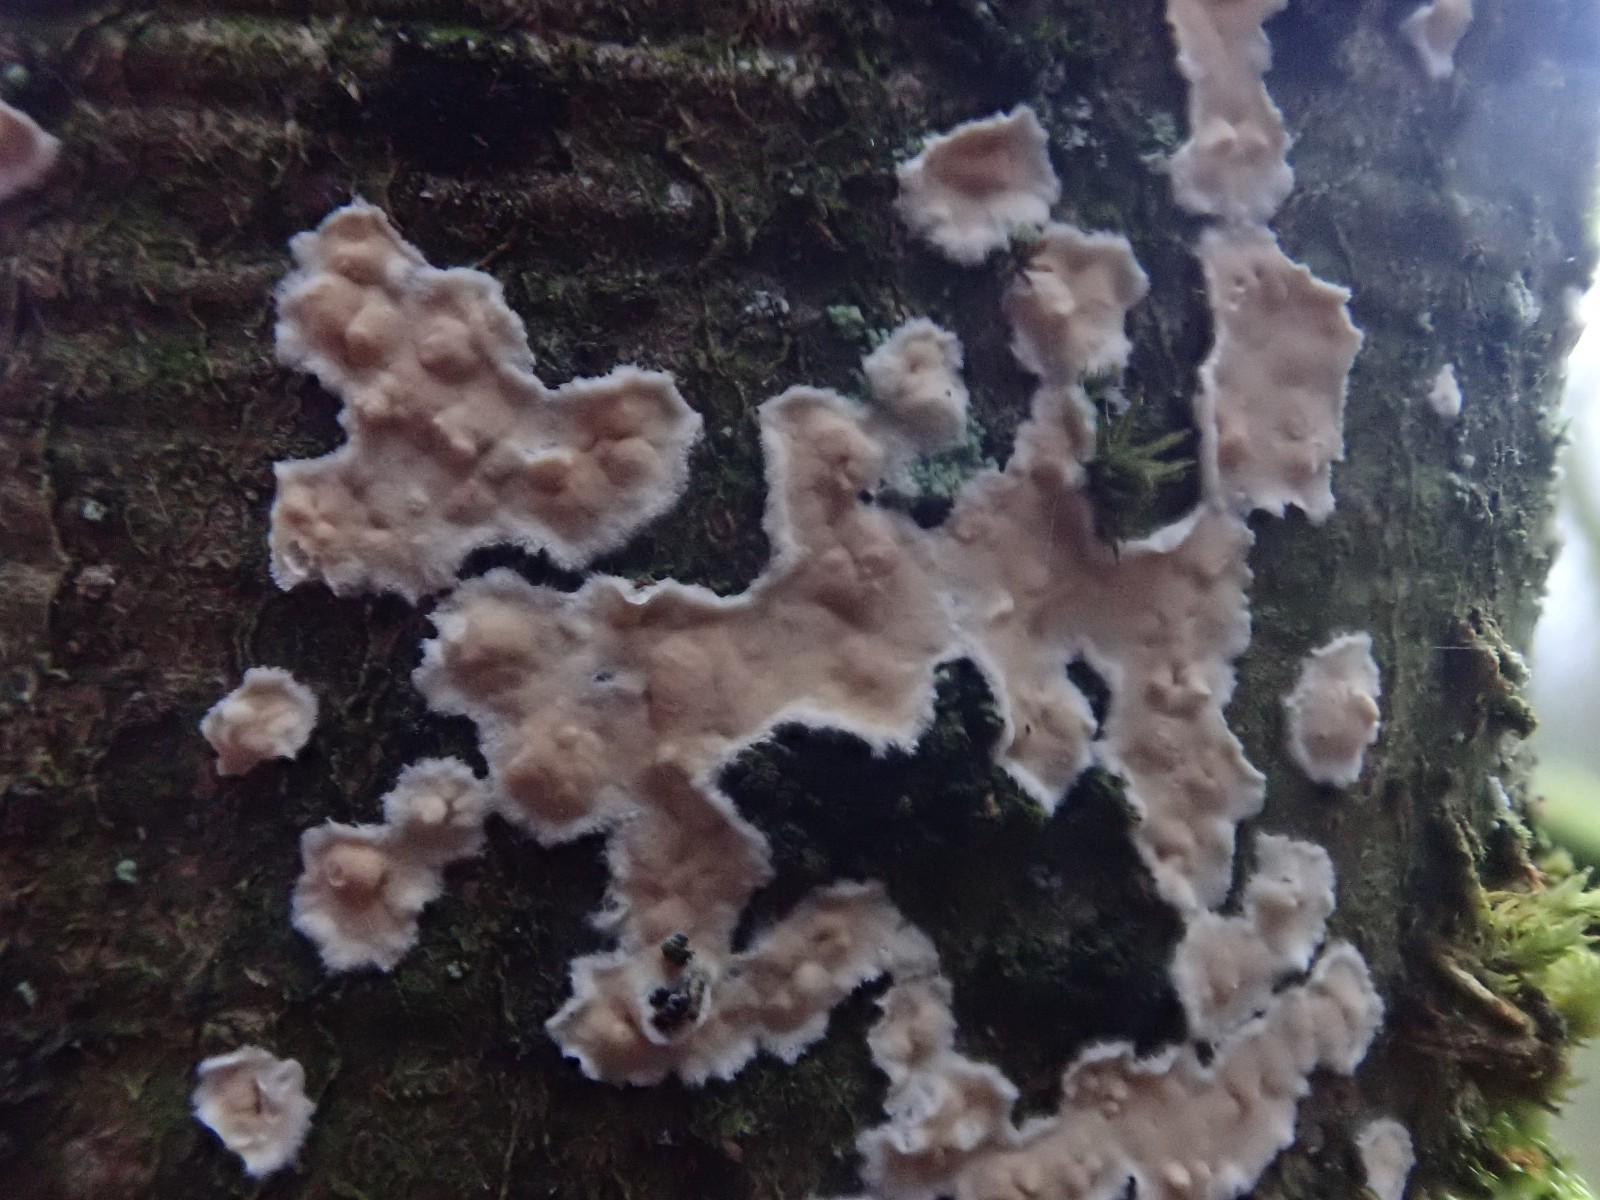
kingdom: Fungi
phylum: Basidiomycota
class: Agaricomycetes
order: Agaricales
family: Physalacriaceae
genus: Cylindrobasidium
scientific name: Cylindrobasidium evolvens
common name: sprækkehinde
